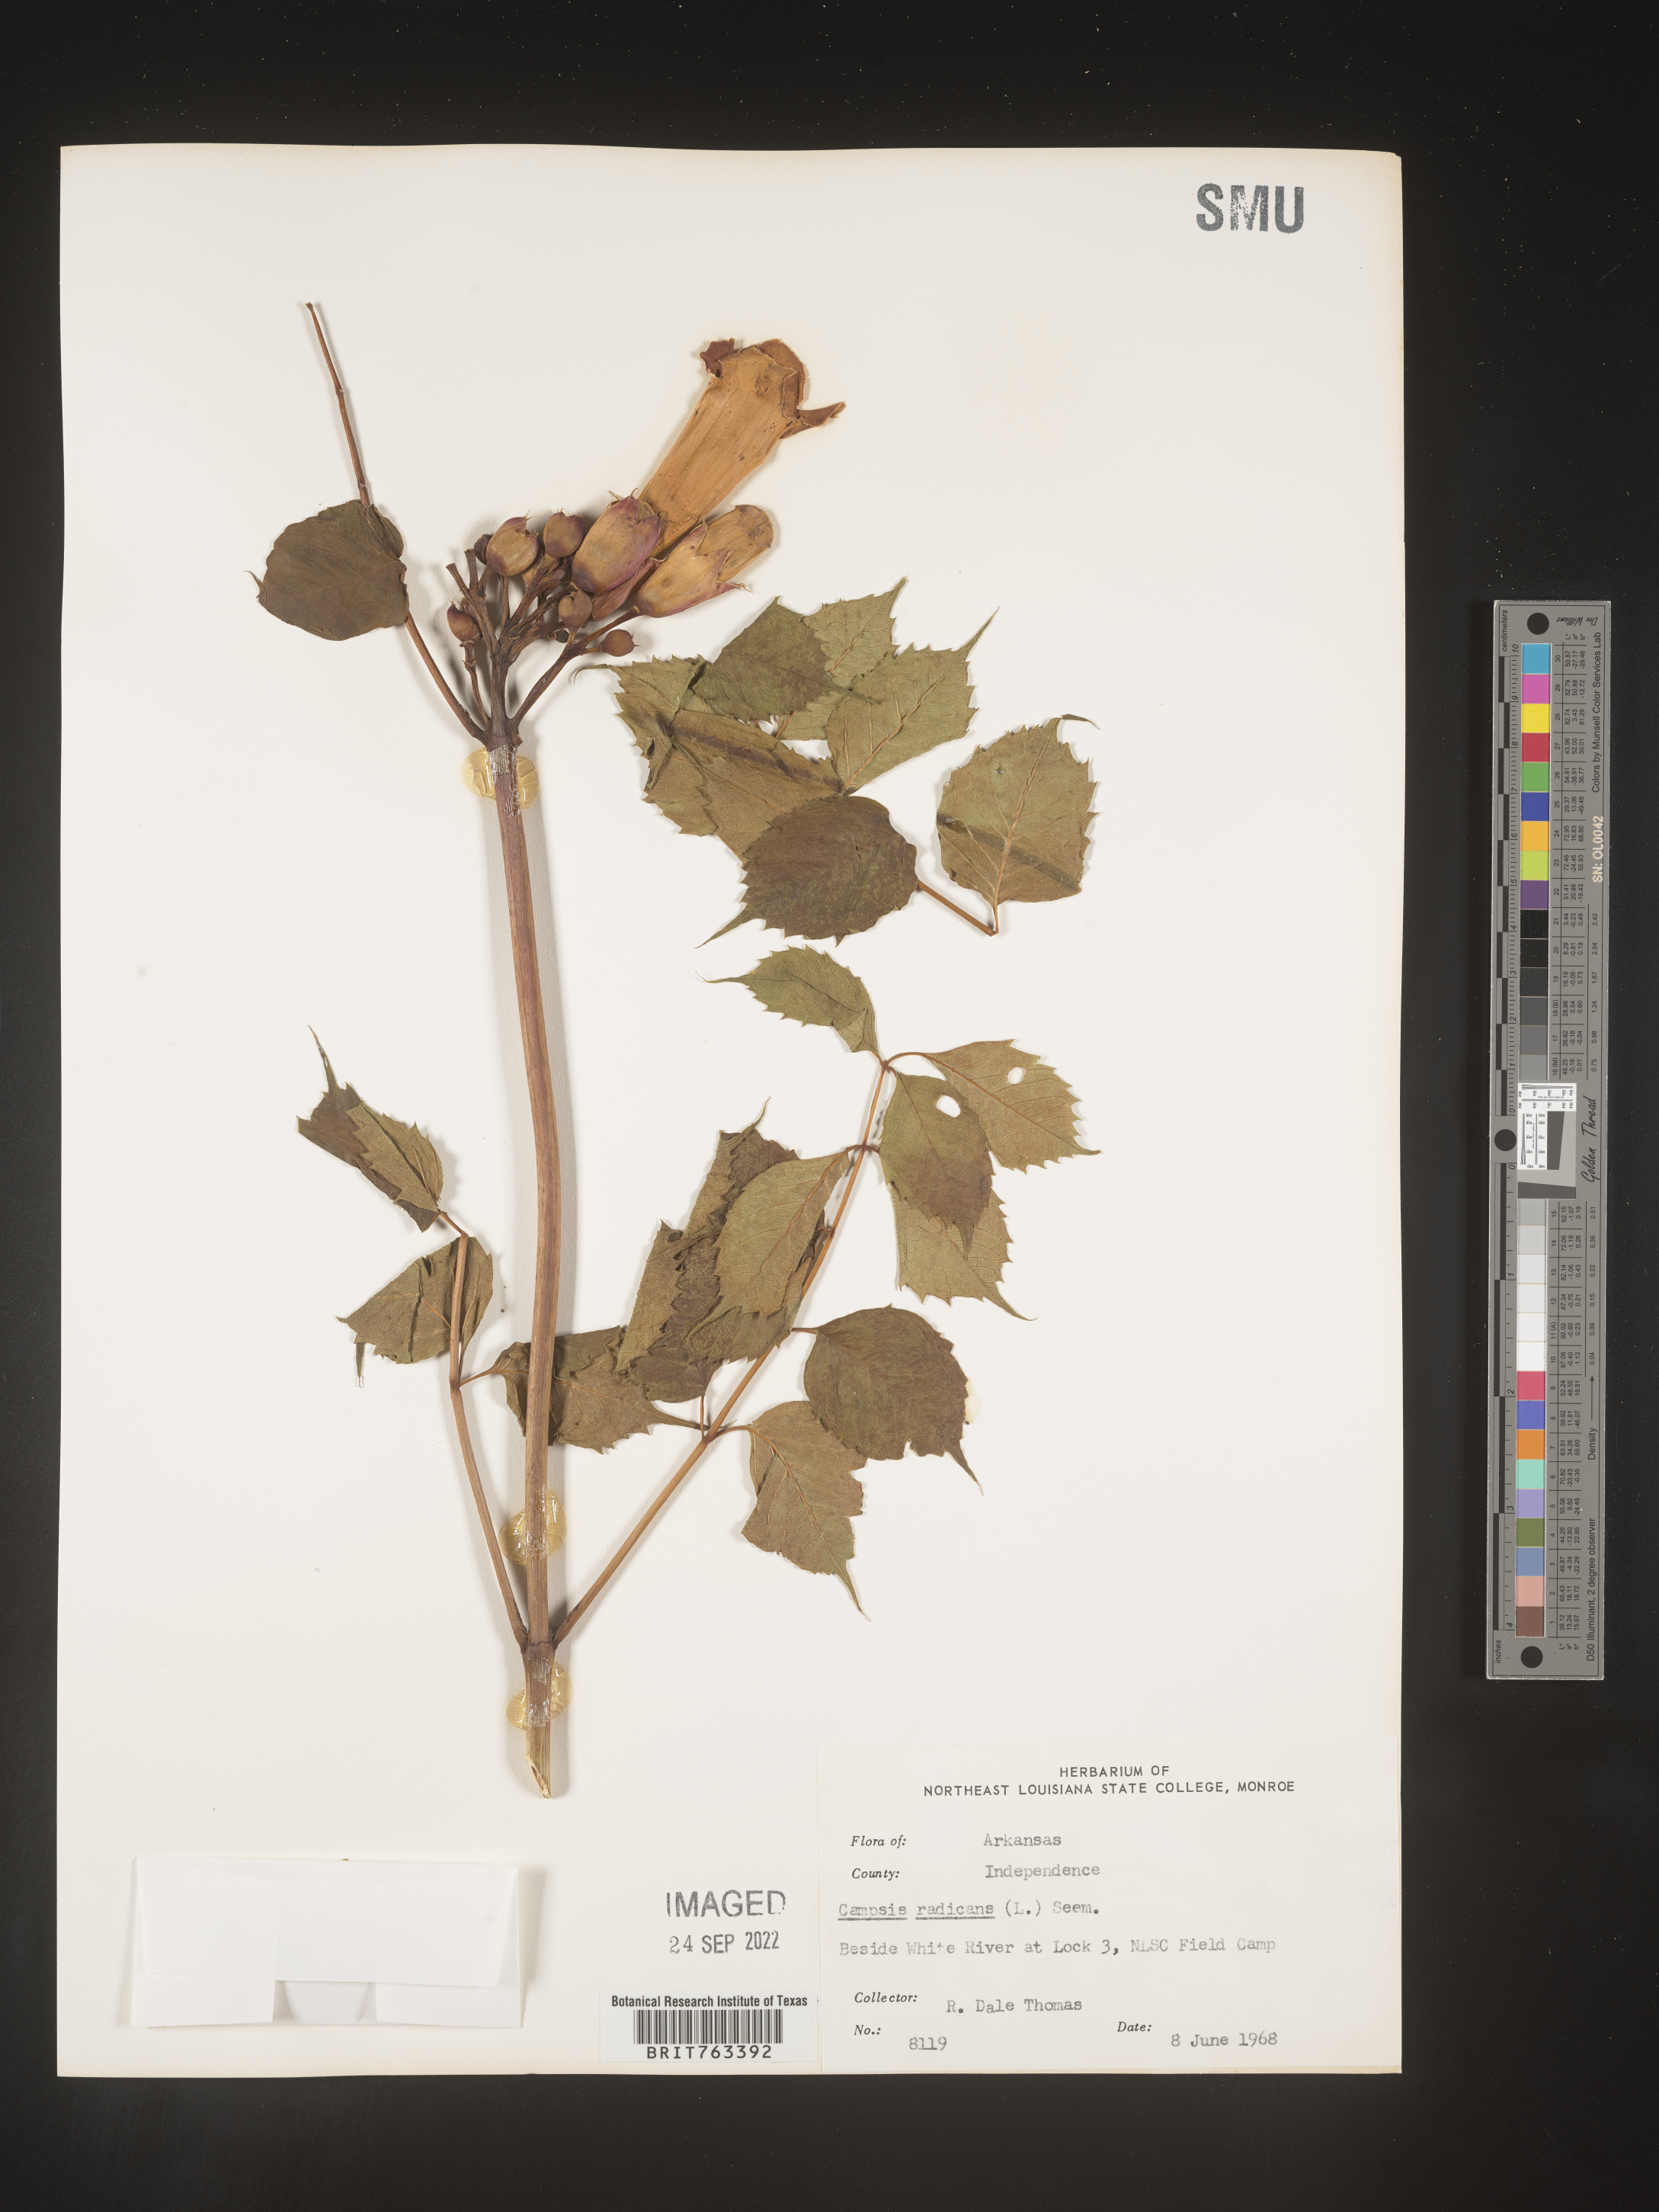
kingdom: Plantae
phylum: Tracheophyta
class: Magnoliopsida
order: Lamiales
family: Bignoniaceae
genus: Campsis
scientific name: Campsis radicans
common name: Trumpet-creeper
